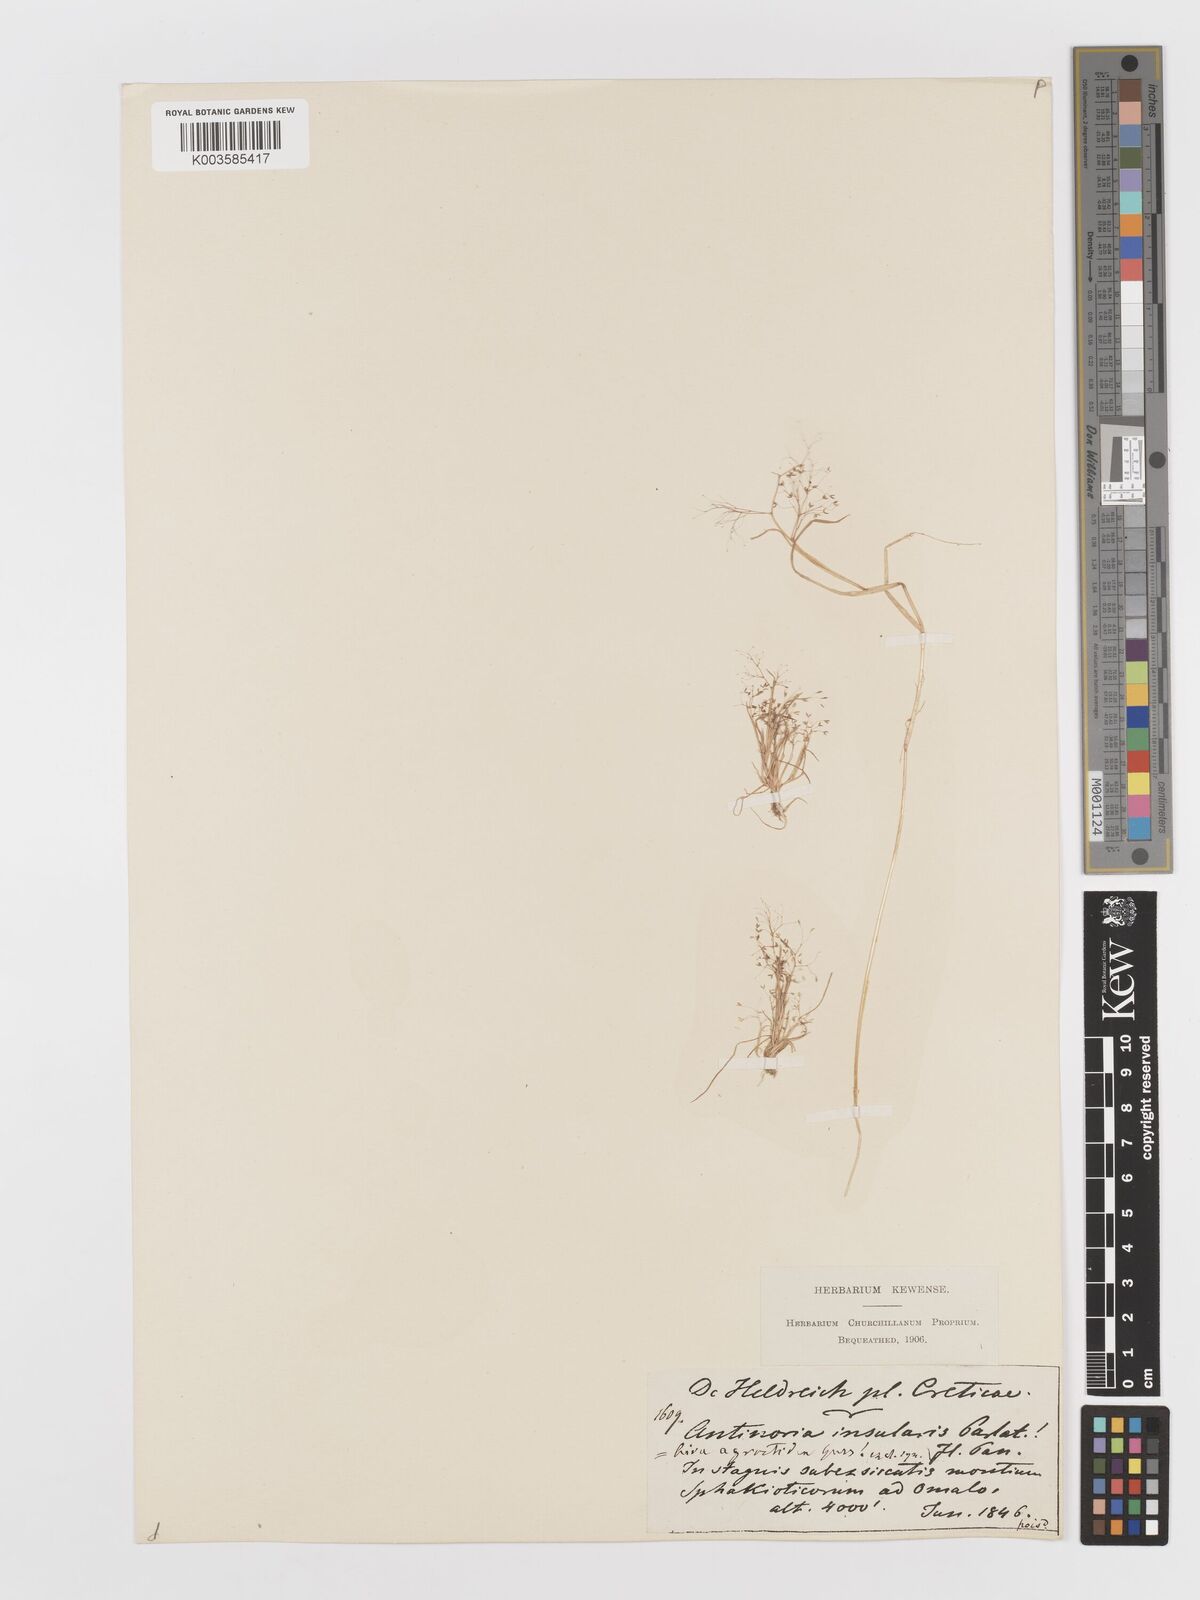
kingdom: Plantae
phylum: Tracheophyta
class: Liliopsida
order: Poales
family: Poaceae
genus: Antinoria
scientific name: Antinoria agrostidea
